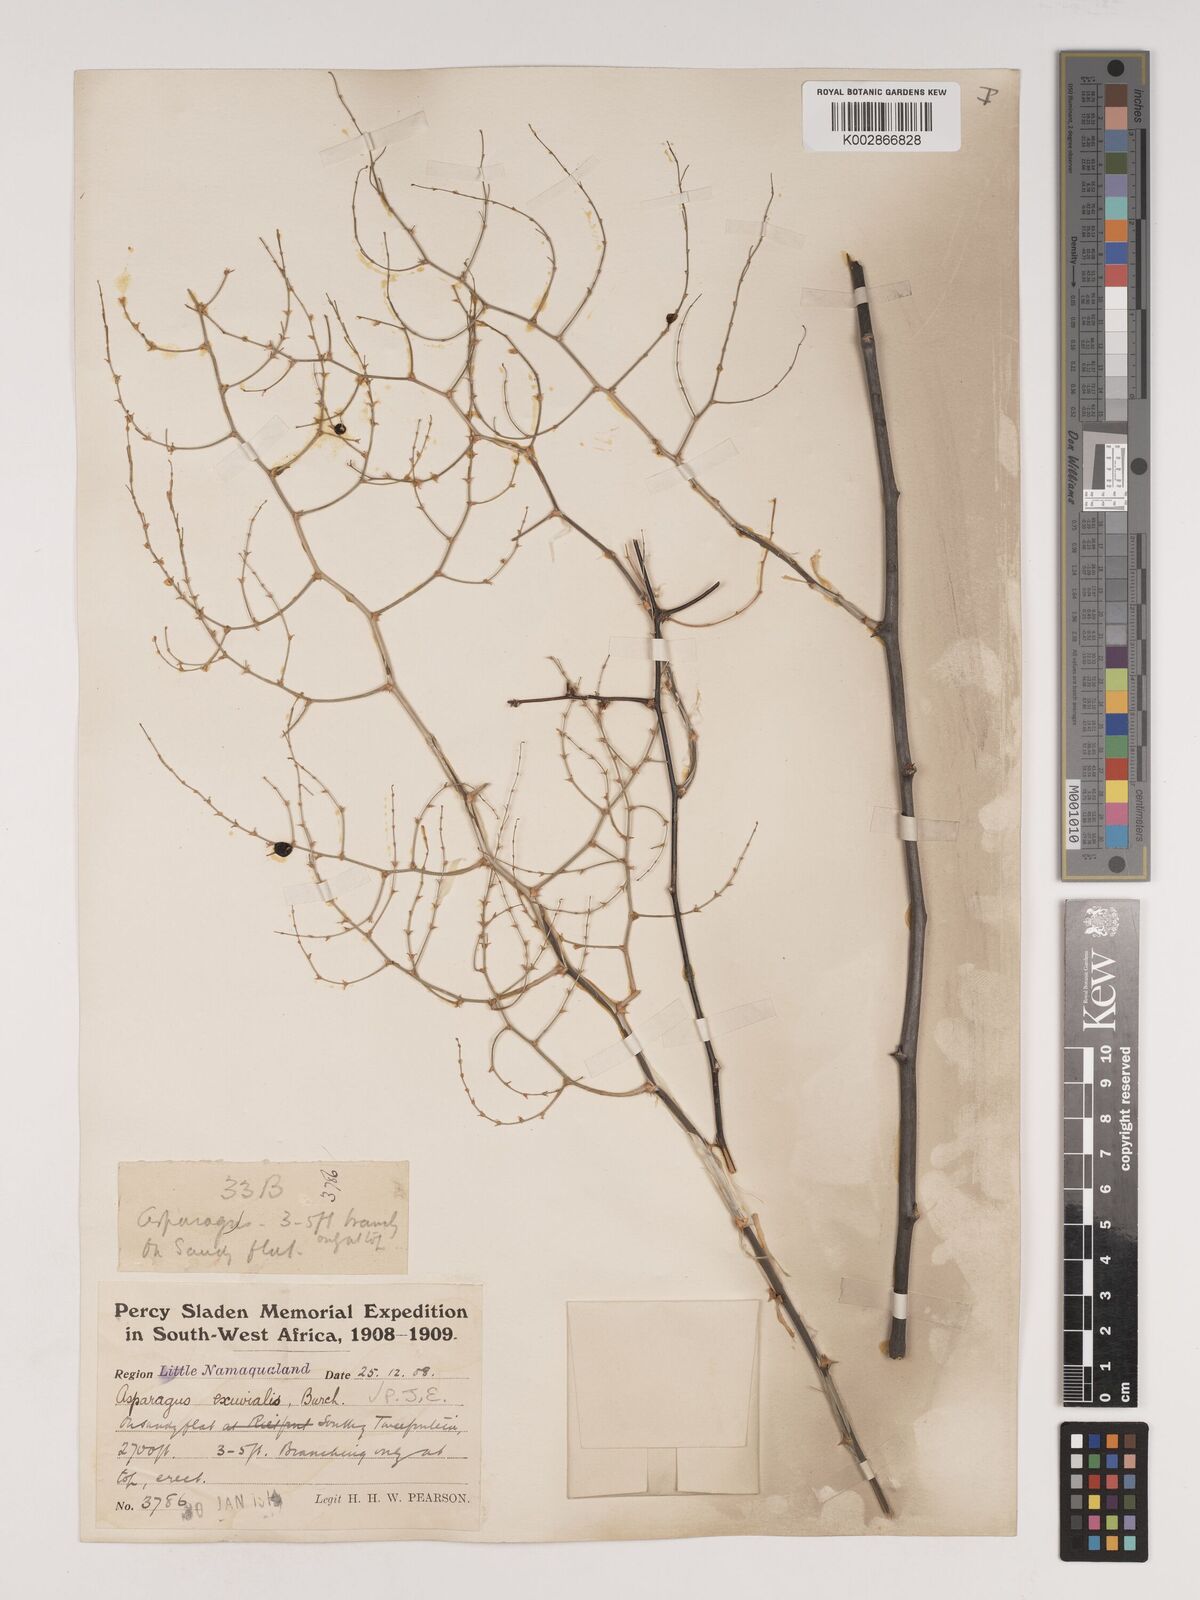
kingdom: Plantae
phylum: Tracheophyta
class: Liliopsida
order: Asparagales
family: Asparagaceae
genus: Asparagus
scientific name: Asparagus exuvialis
